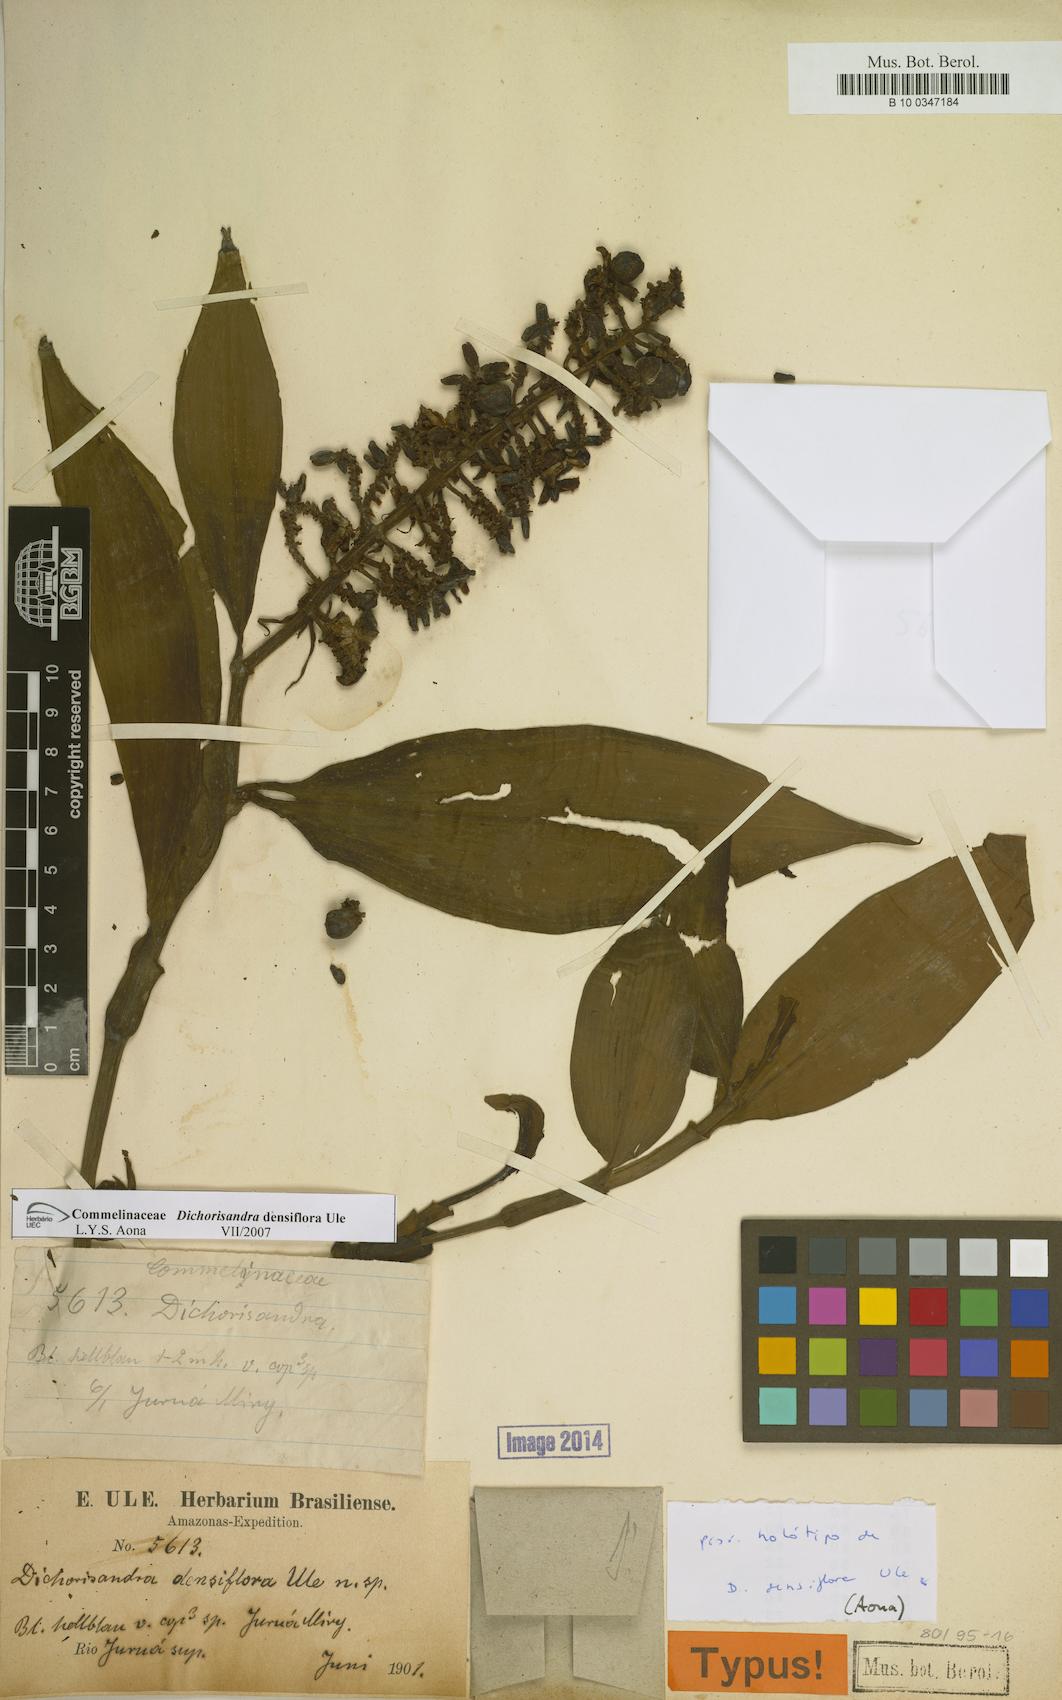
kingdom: Plantae
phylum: Tracheophyta
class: Liliopsida
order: Commelinales
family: Commelinaceae
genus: Dichorisandra
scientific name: Dichorisandra densiflora
